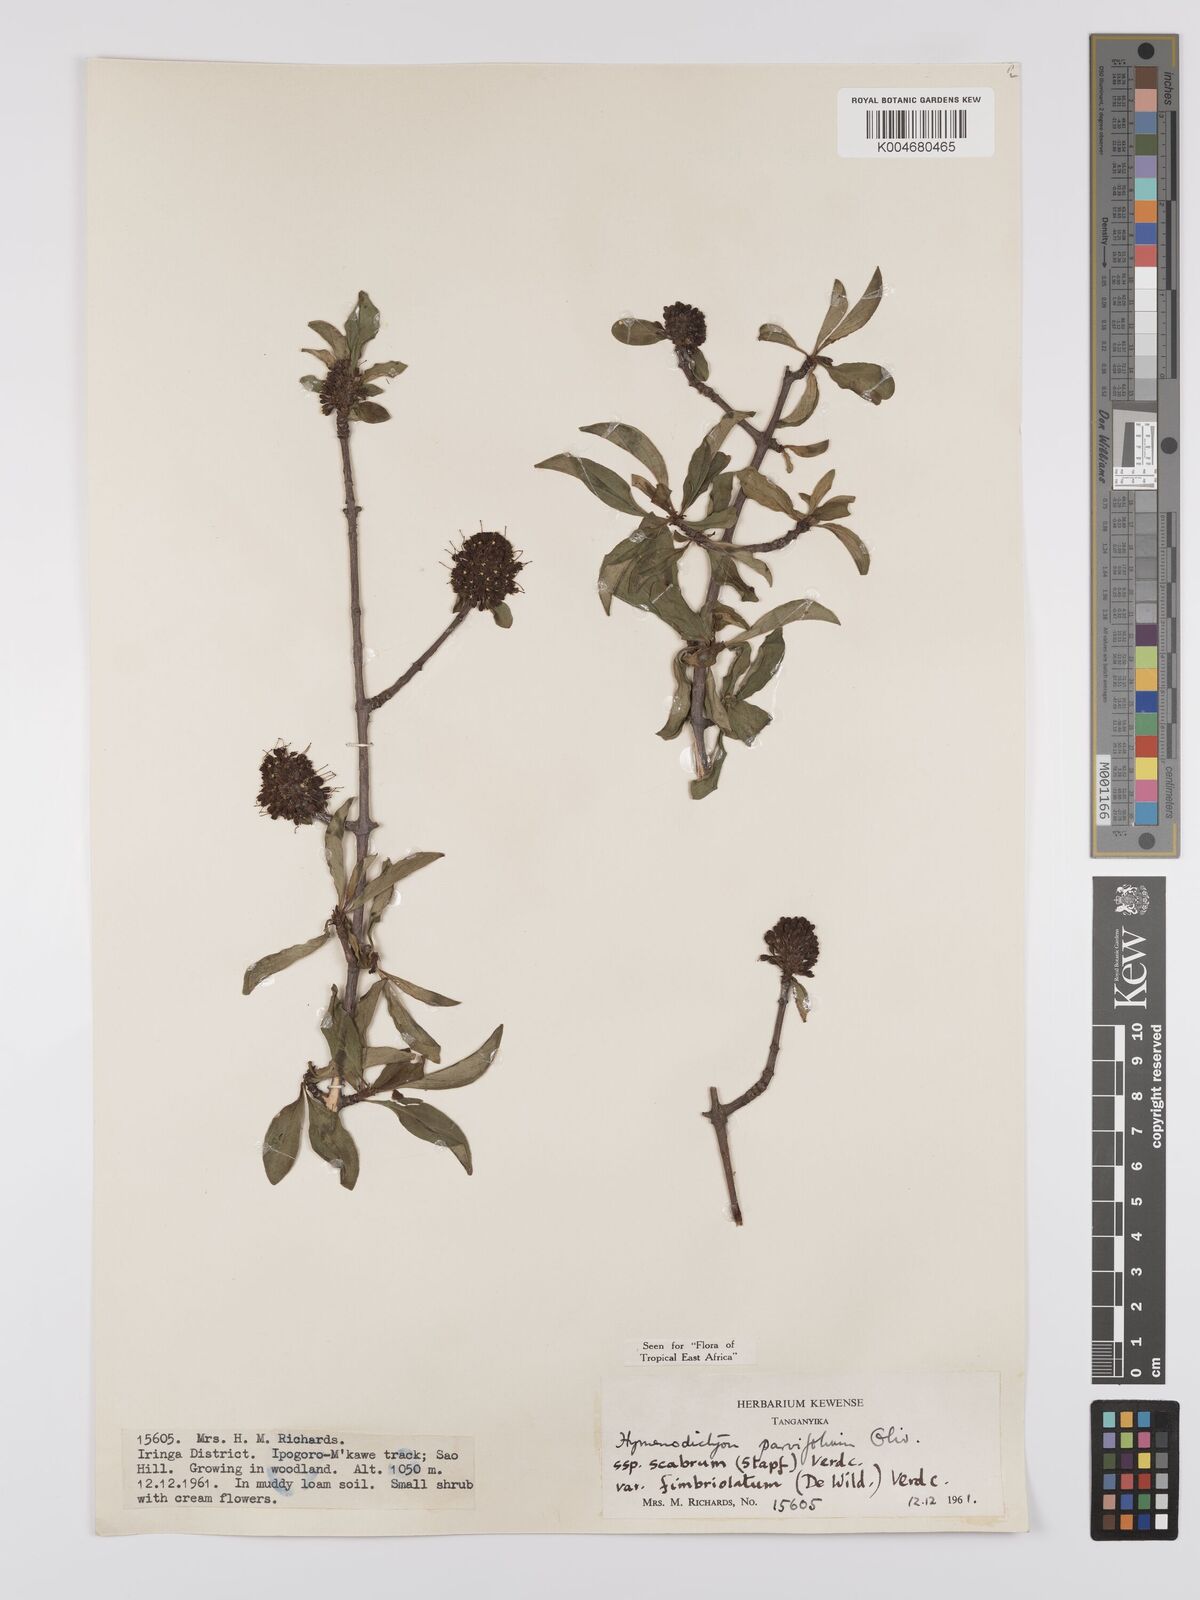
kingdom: Plantae
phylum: Tracheophyta
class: Magnoliopsida
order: Gentianales
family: Rubiaceae
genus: Hymenodictyon
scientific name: Hymenodictyon scabrum
